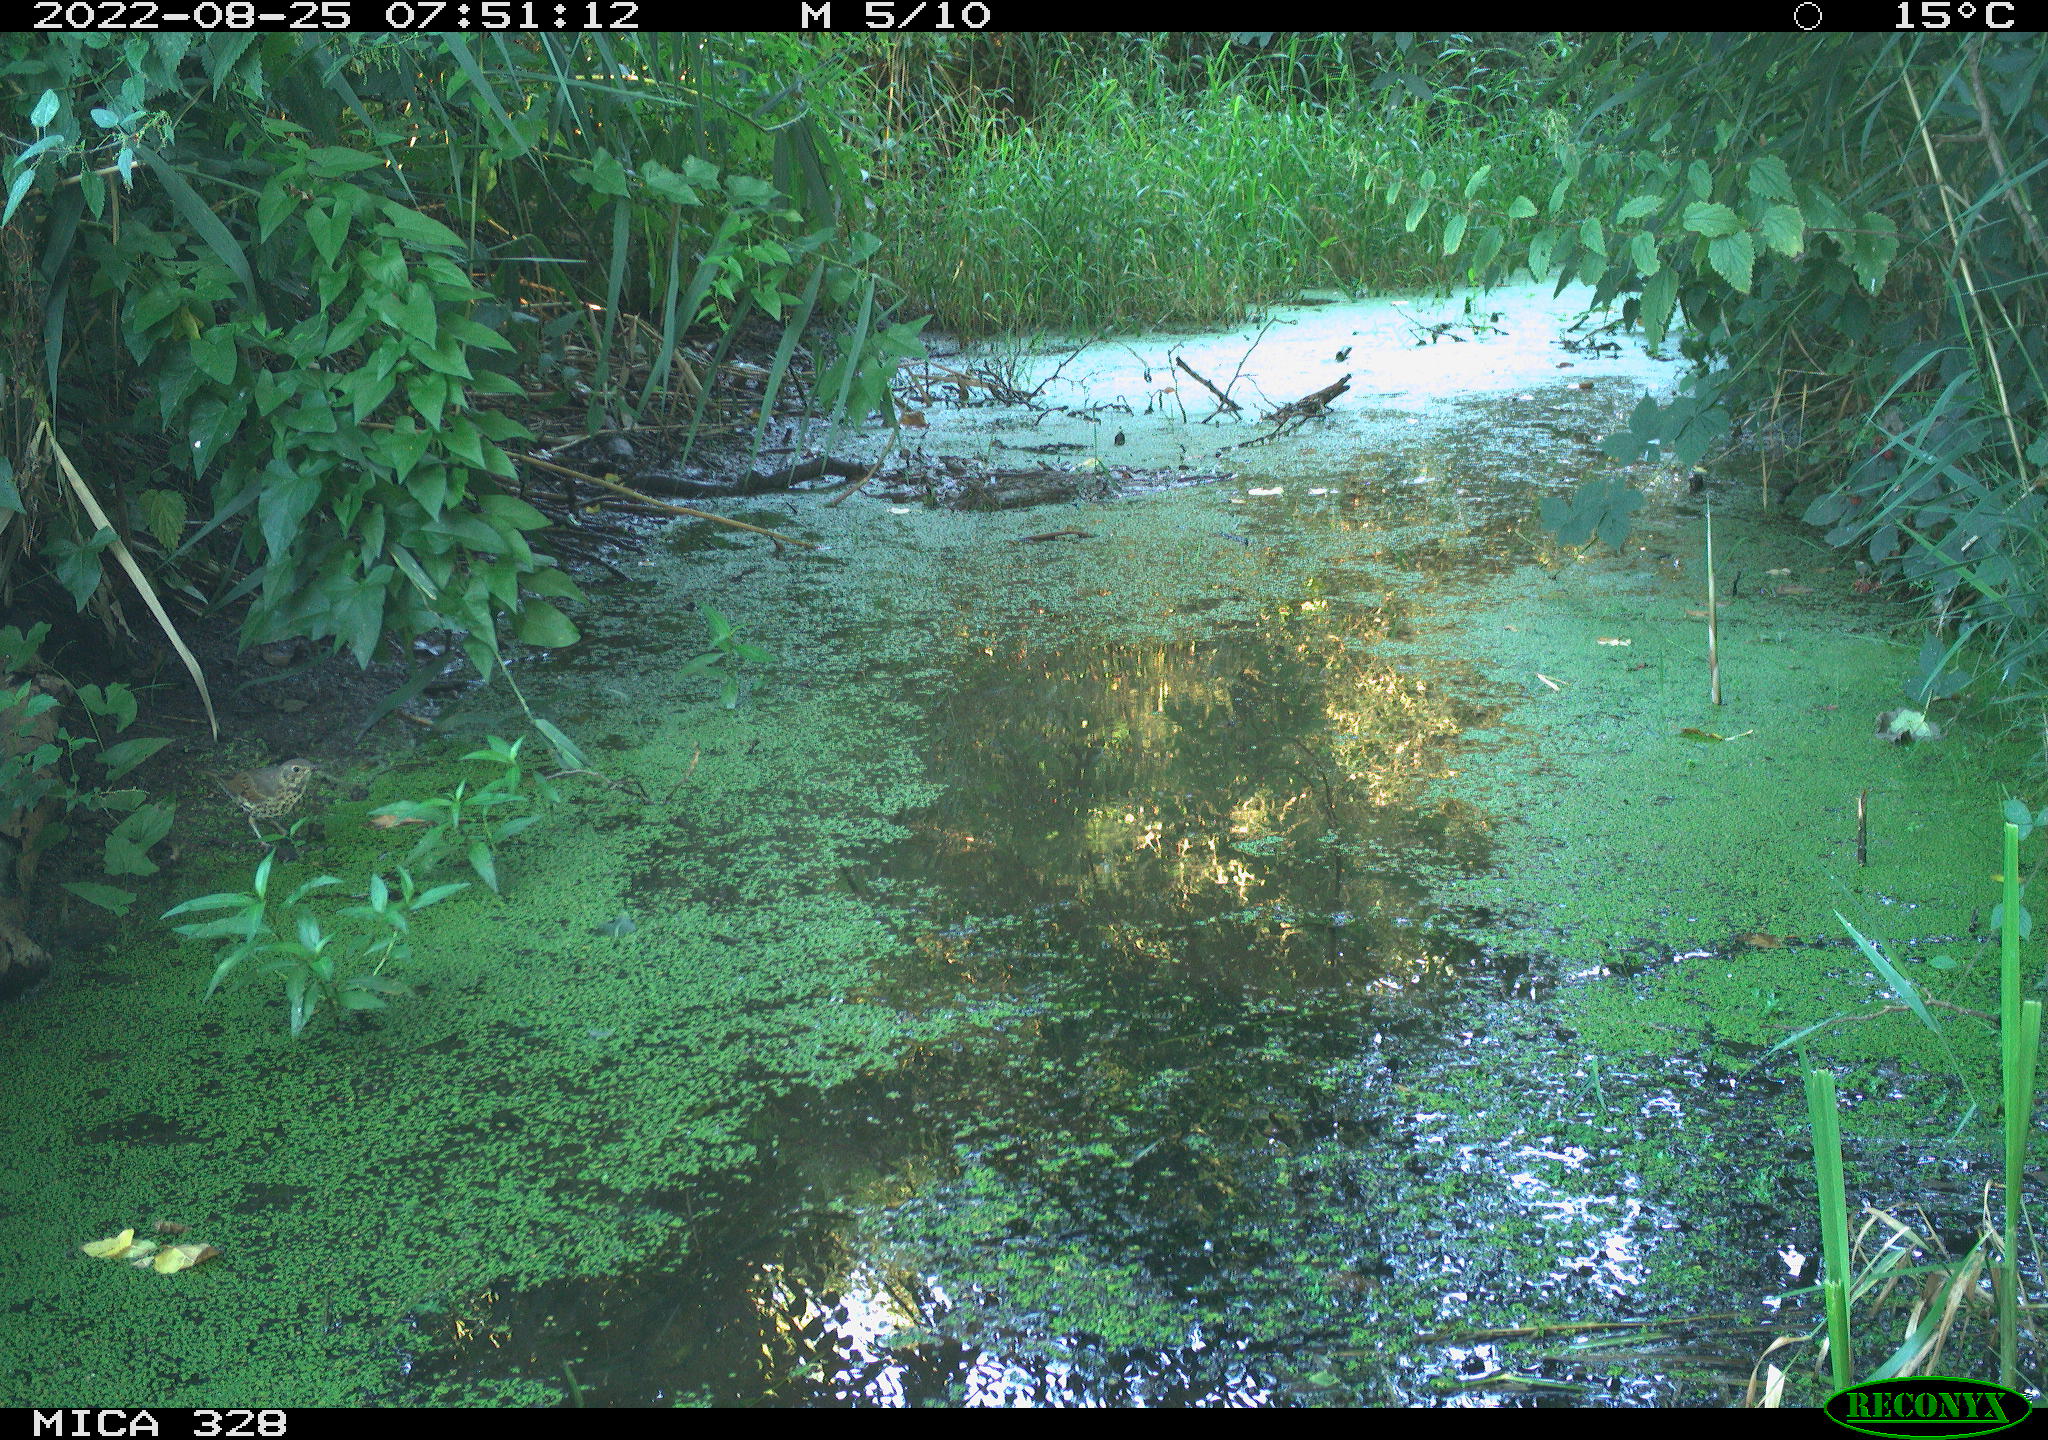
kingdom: Animalia
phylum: Chordata
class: Aves
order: Passeriformes
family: Turdidae
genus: Turdus
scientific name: Turdus philomelos
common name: Song thrush
